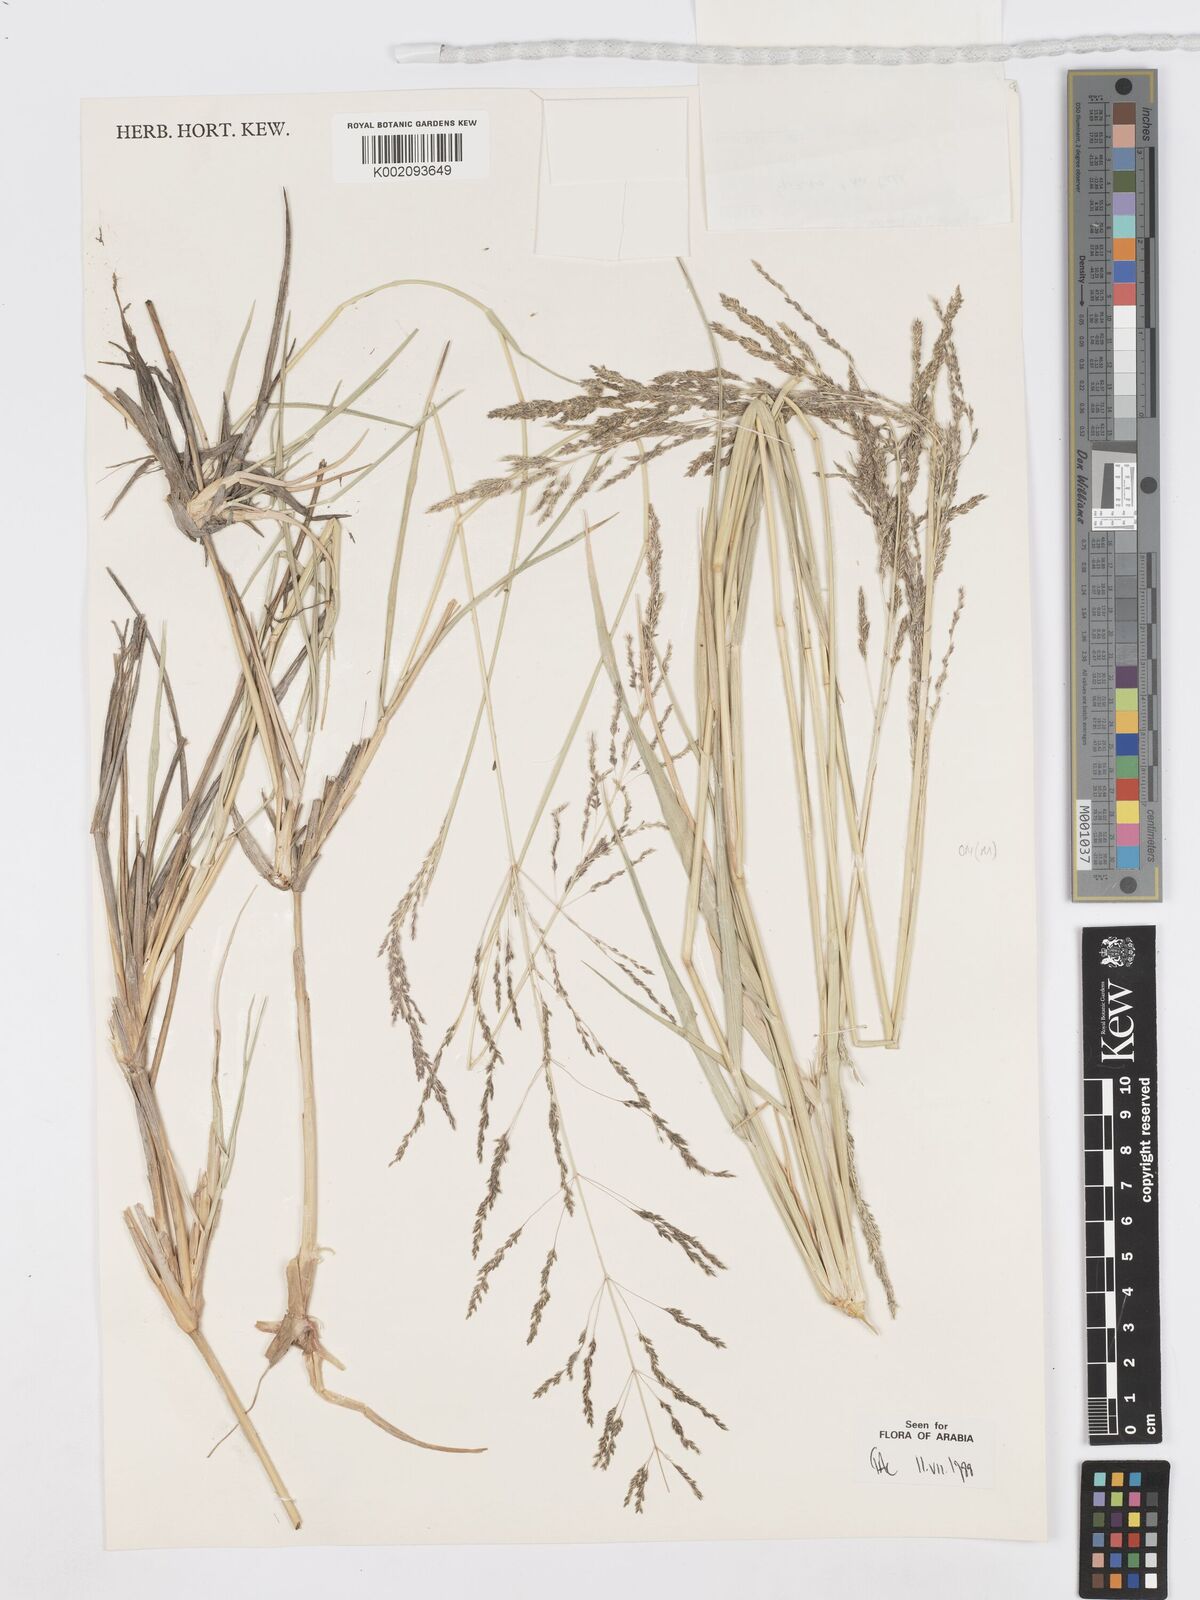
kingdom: Plantae
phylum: Tracheophyta
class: Liliopsida
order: Poales
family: Poaceae
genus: Sporobolus
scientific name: Sporobolus ioclados
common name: Pan dropseed
